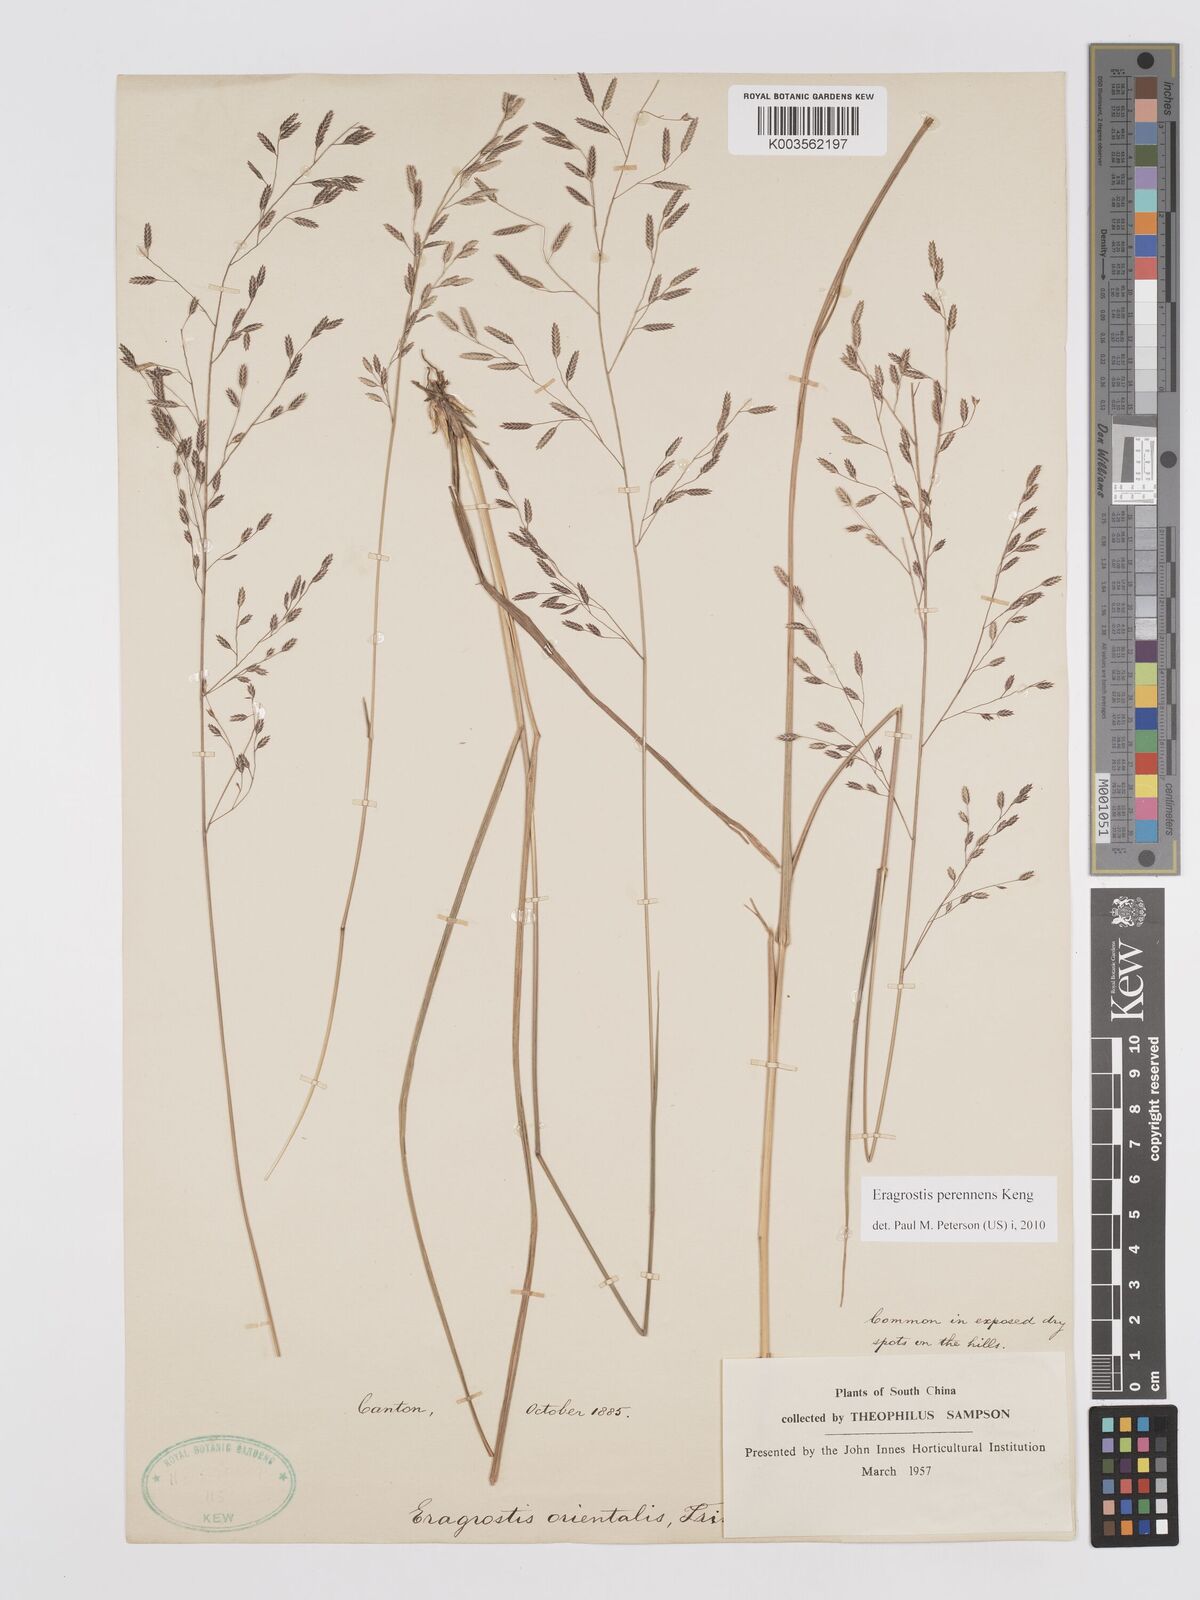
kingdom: Plantae
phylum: Tracheophyta
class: Liliopsida
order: Poales
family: Poaceae
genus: Eragrostis
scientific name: Eragrostis perennans
